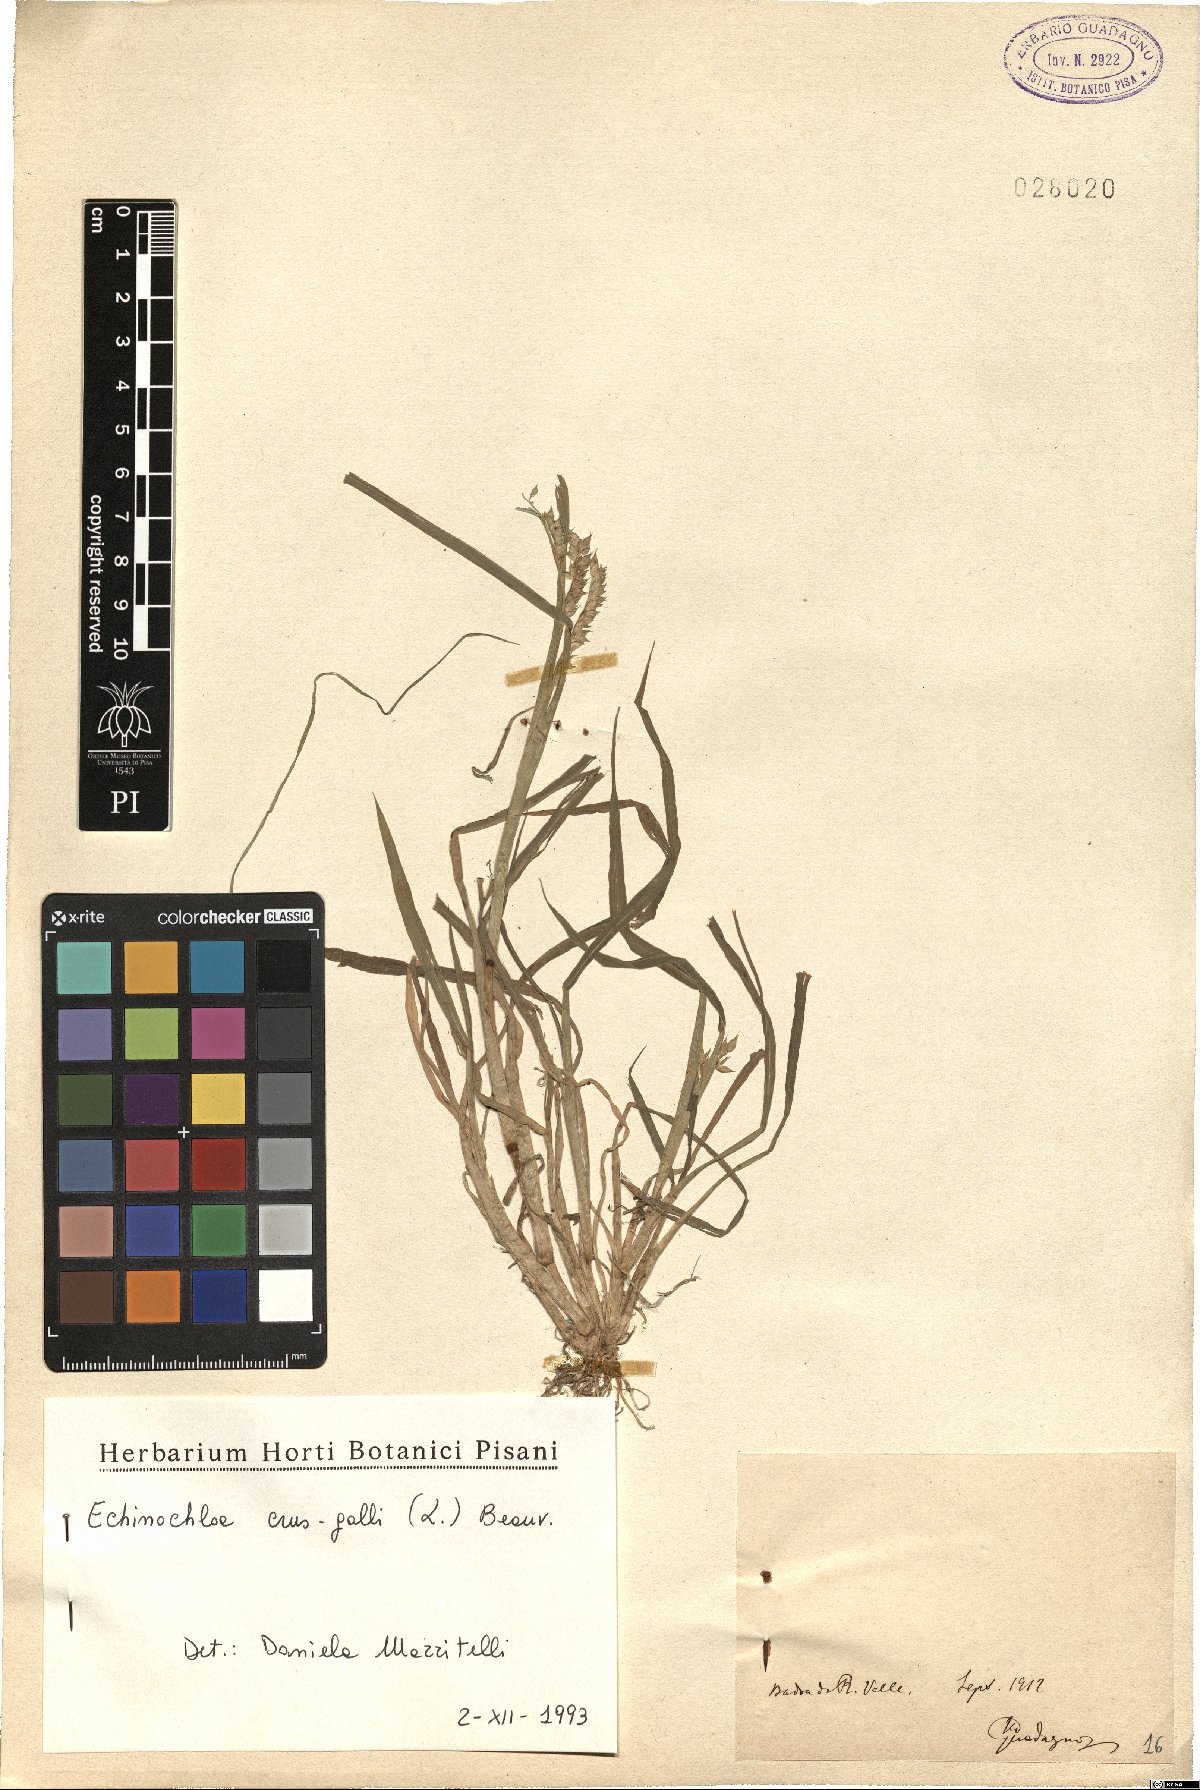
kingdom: Plantae
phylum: Tracheophyta
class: Liliopsida
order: Poales
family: Poaceae
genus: Echinochloa
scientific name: Echinochloa crus-galli
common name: Cockspur
